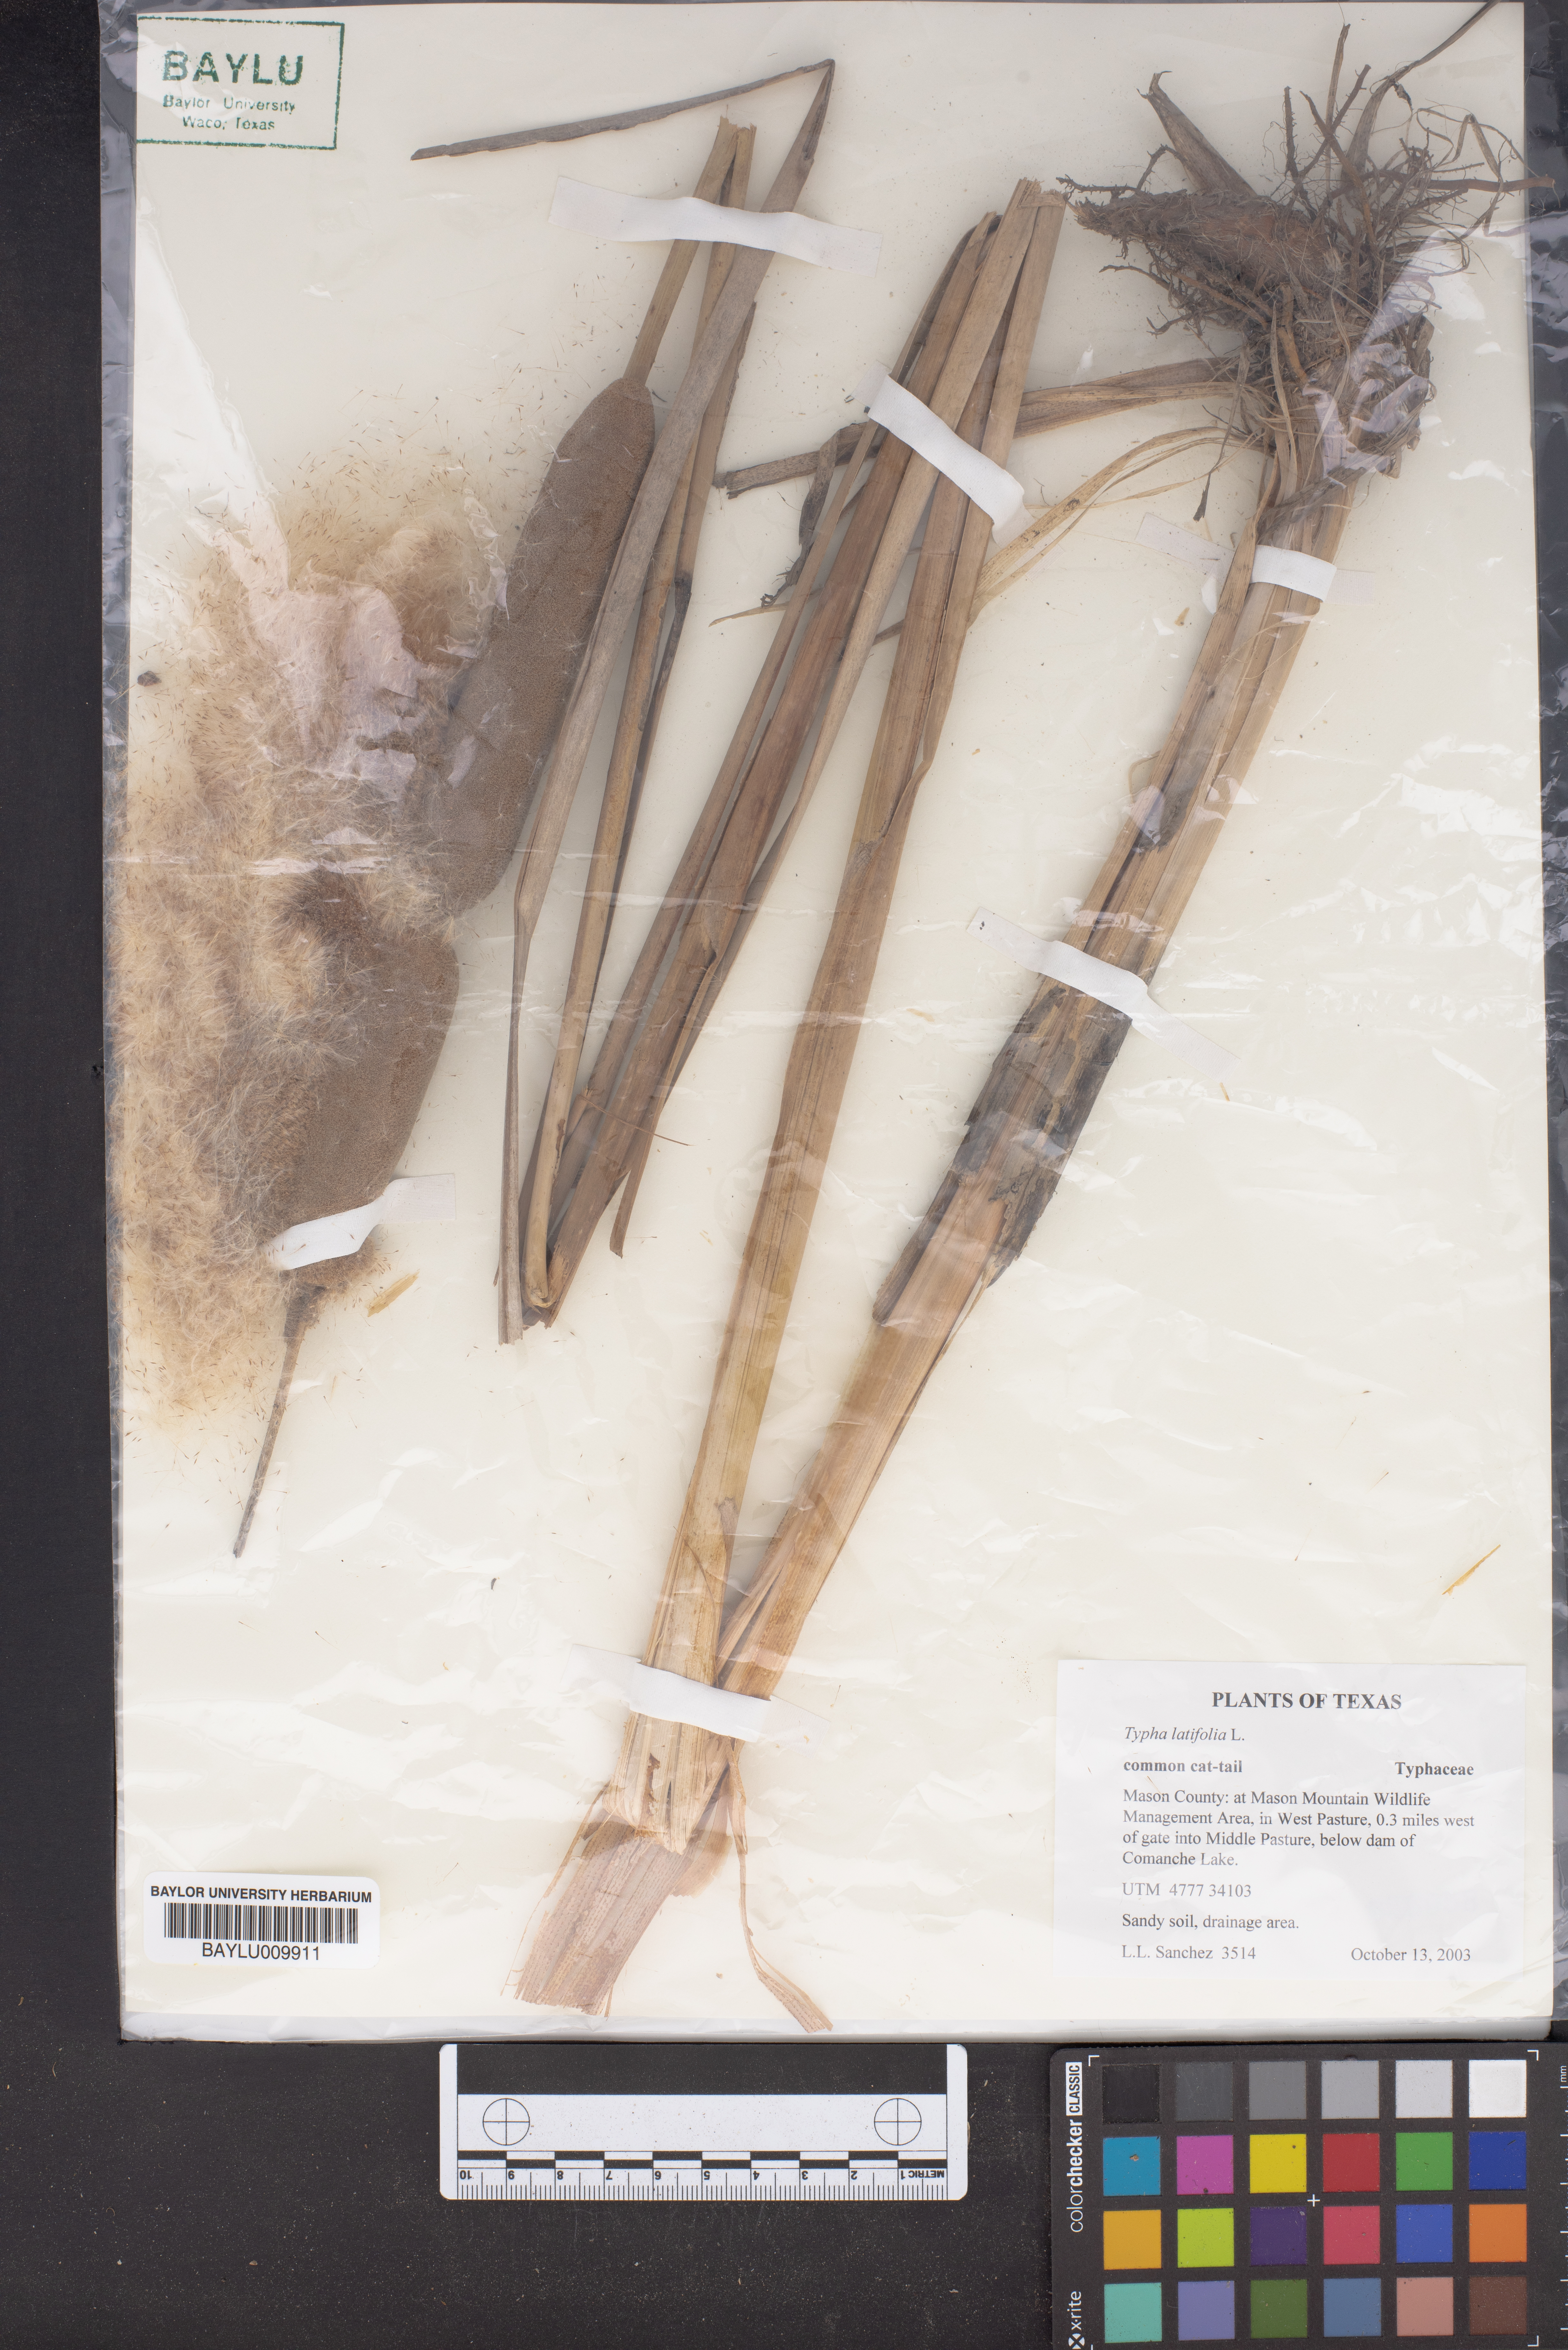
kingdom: Plantae
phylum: Tracheophyta
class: Liliopsida
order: Poales
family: Typhaceae
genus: Typha
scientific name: Typha latifolia
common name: Broadleaf cattail
